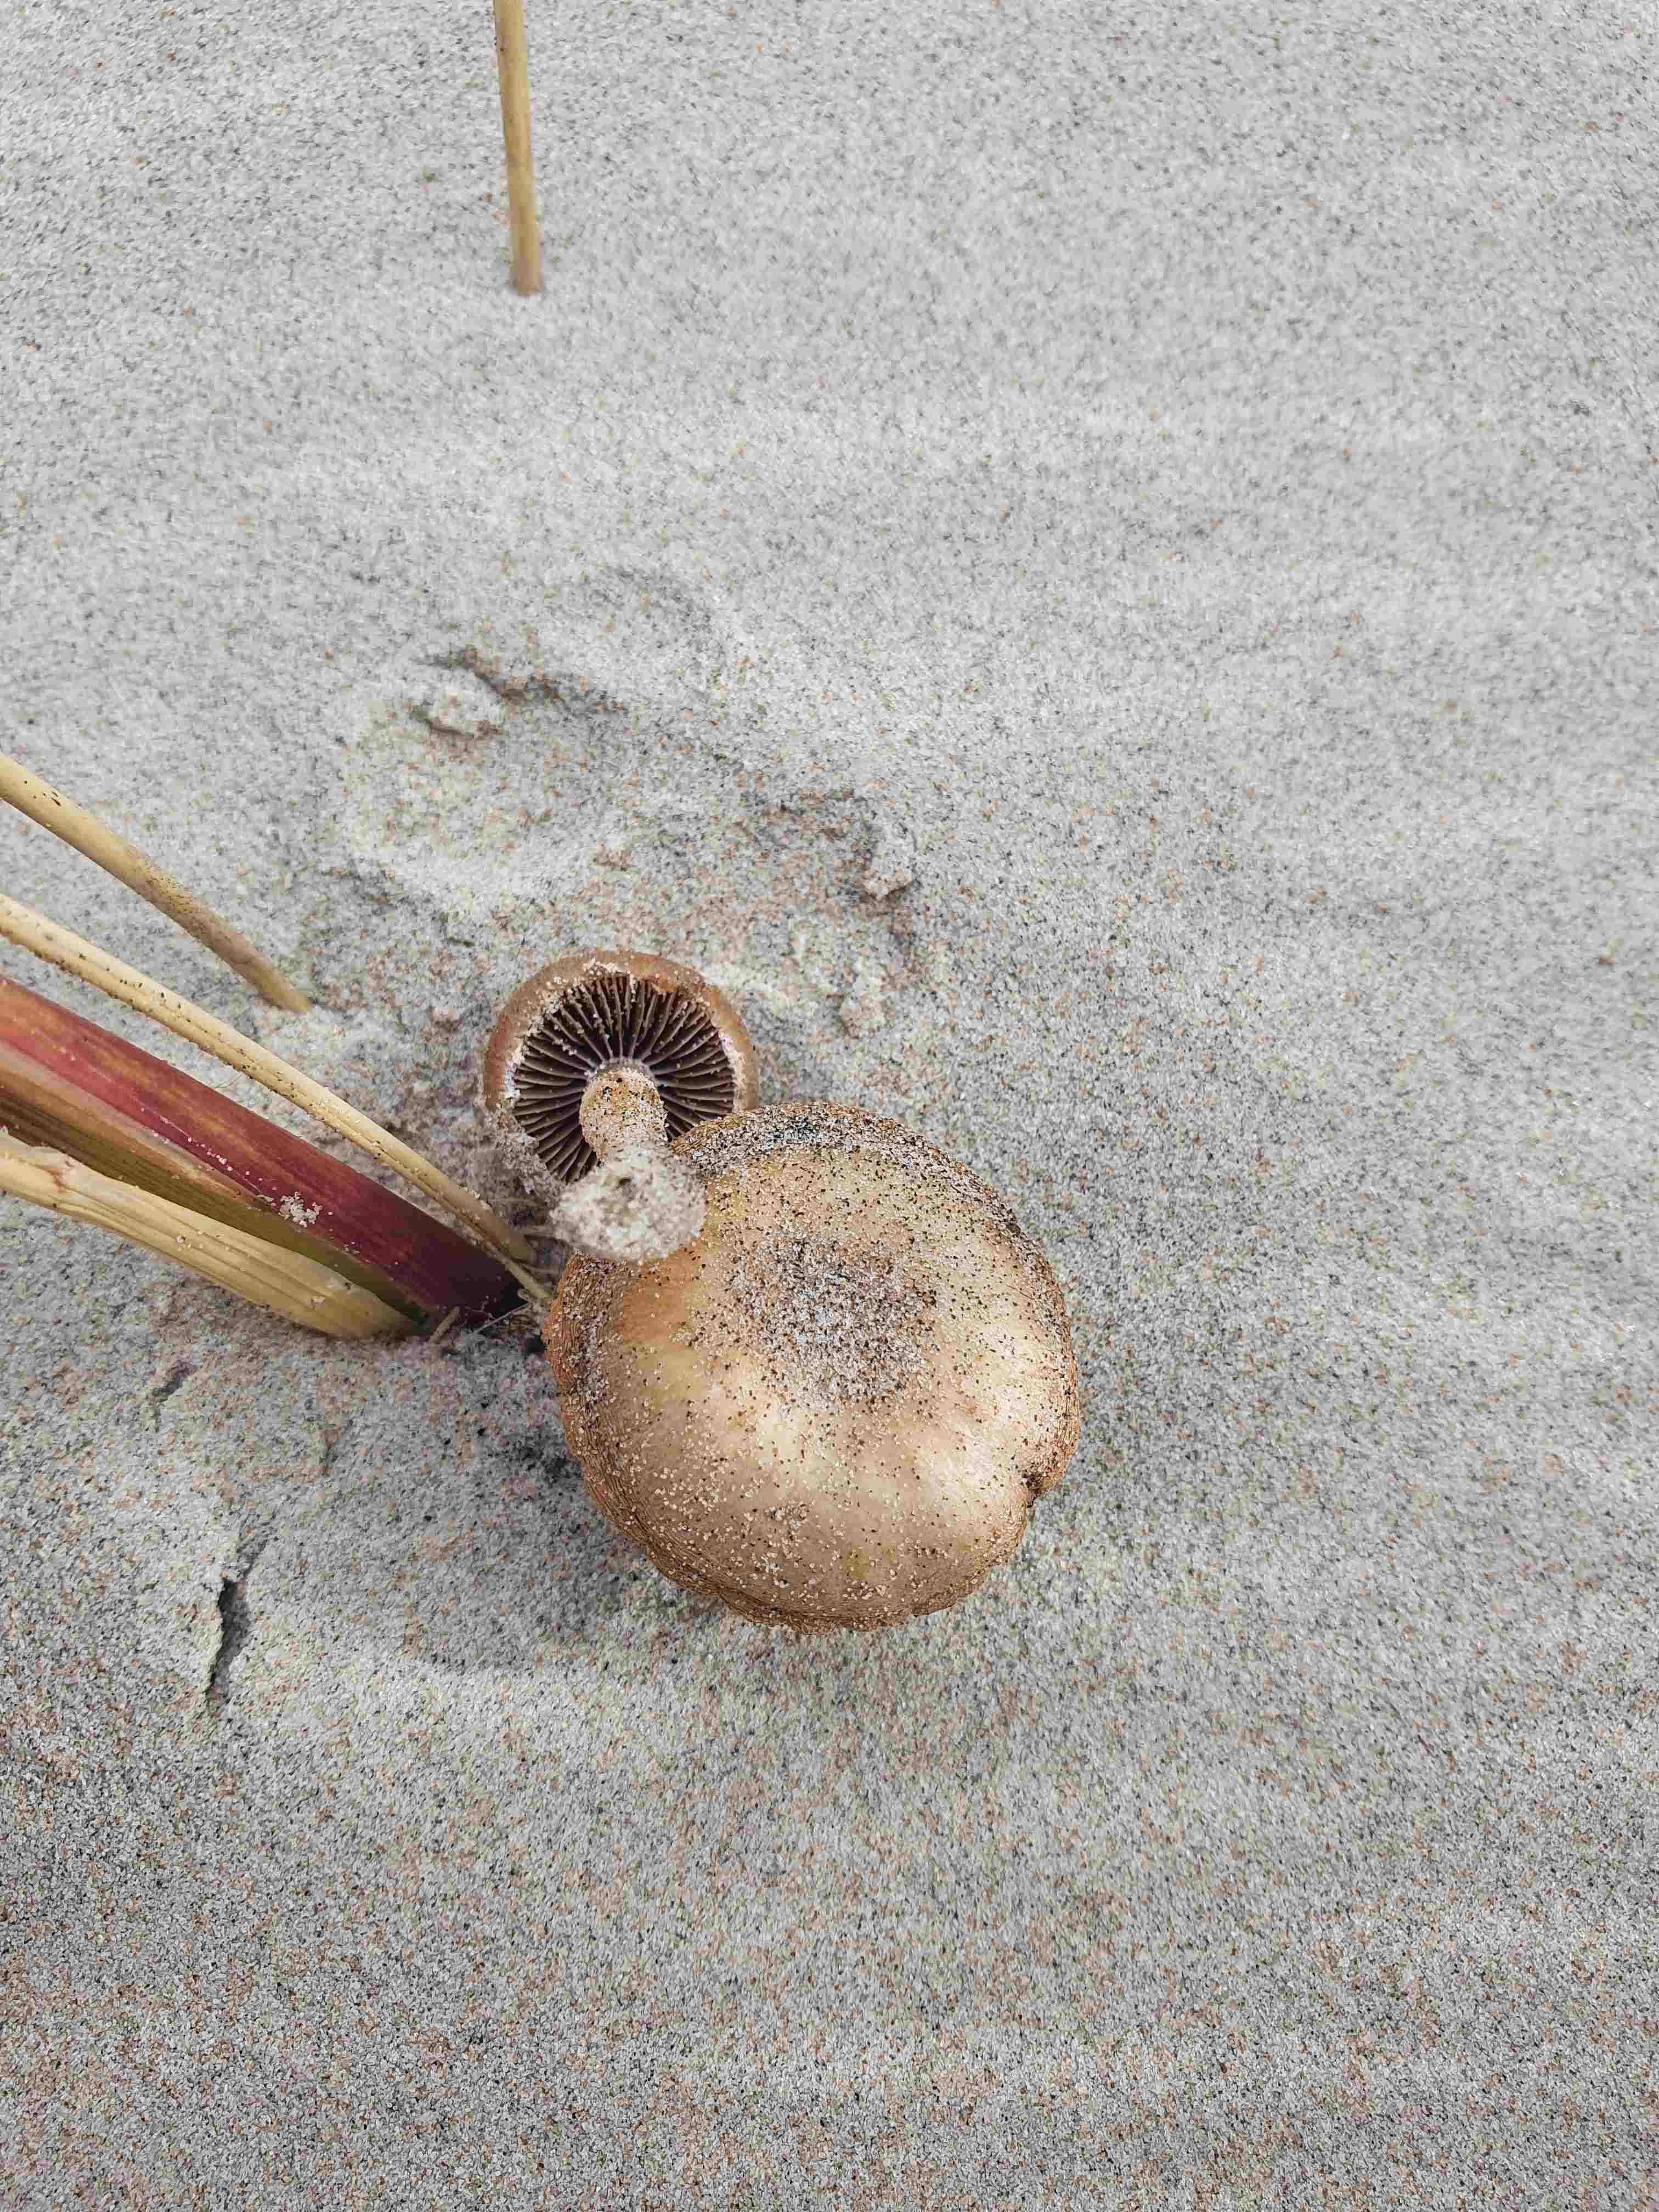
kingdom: Fungi
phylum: Basidiomycota
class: Agaricomycetes
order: Agaricales
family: Psathyrellaceae
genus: Psathyrella
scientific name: Psathyrella ammophila
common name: klit-mørkhat
